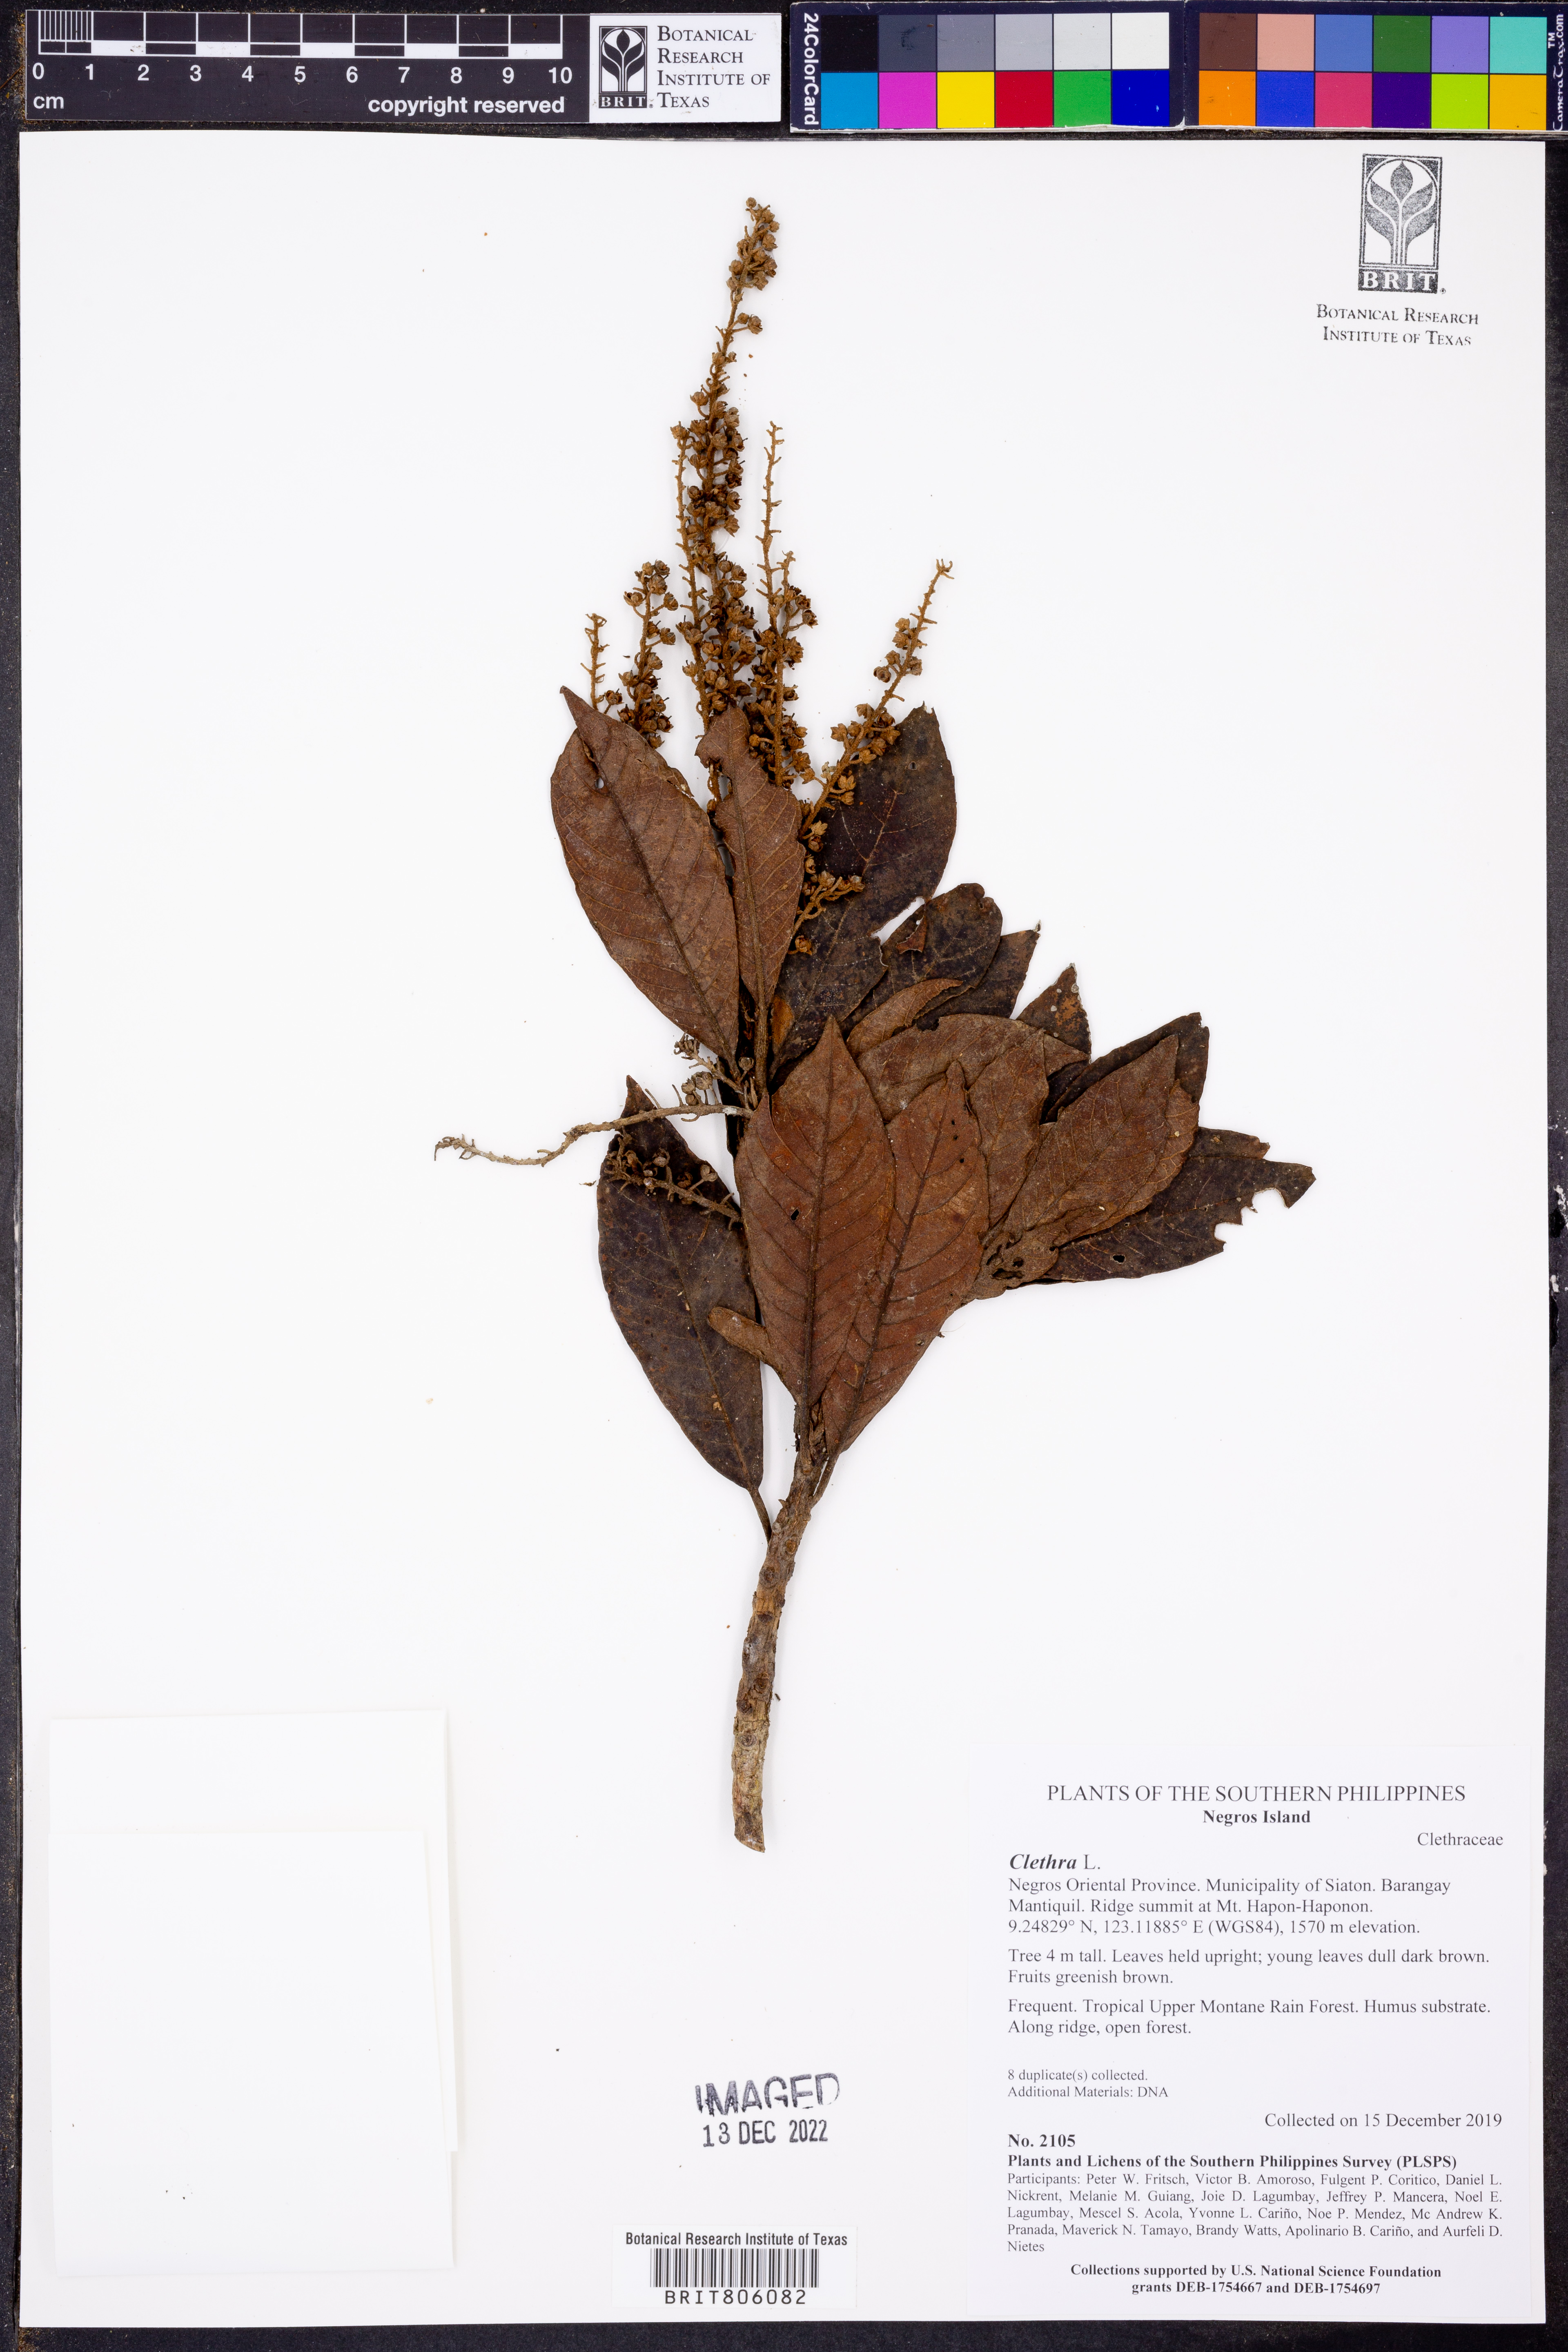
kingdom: Plantae
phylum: Tracheophyta
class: Magnoliopsida
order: Ericales
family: Clethraceae
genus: Clethra
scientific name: Clethra
